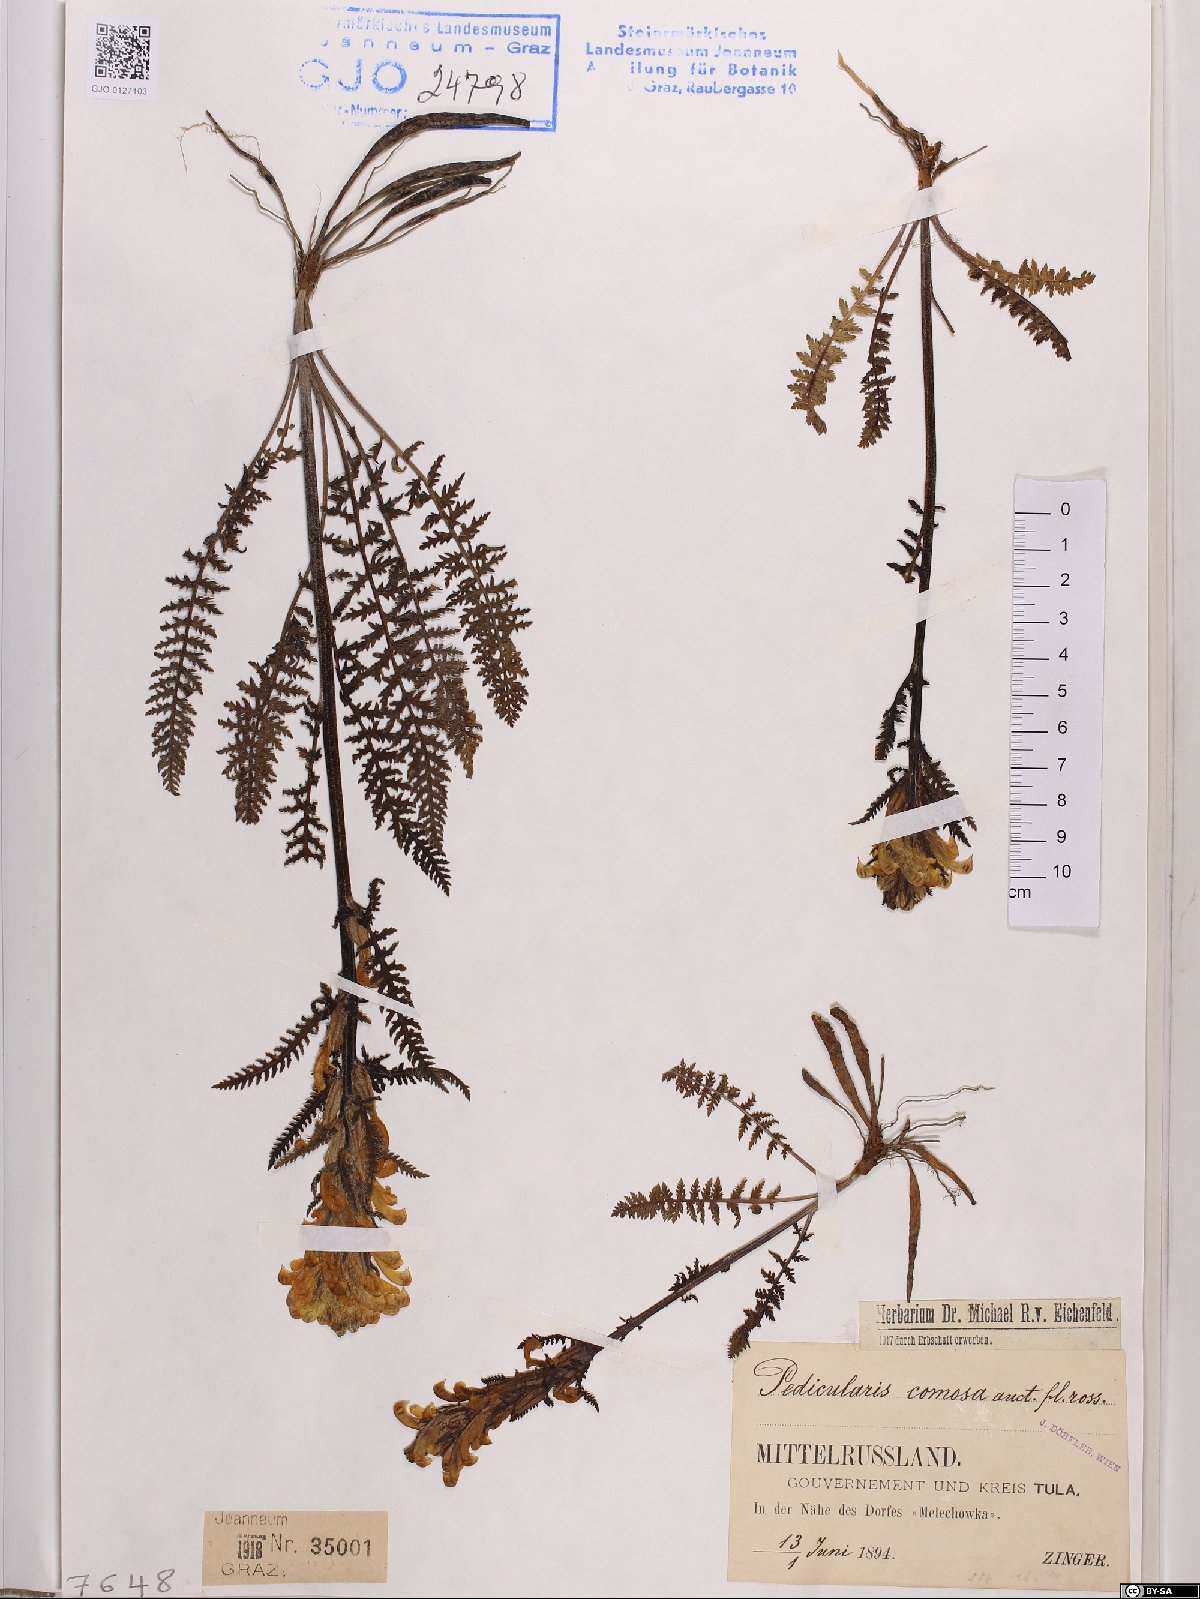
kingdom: Plantae
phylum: Tracheophyta
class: Magnoliopsida
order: Lamiales
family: Orobanchaceae
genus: Pedicularis
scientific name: Pedicularis comosa
